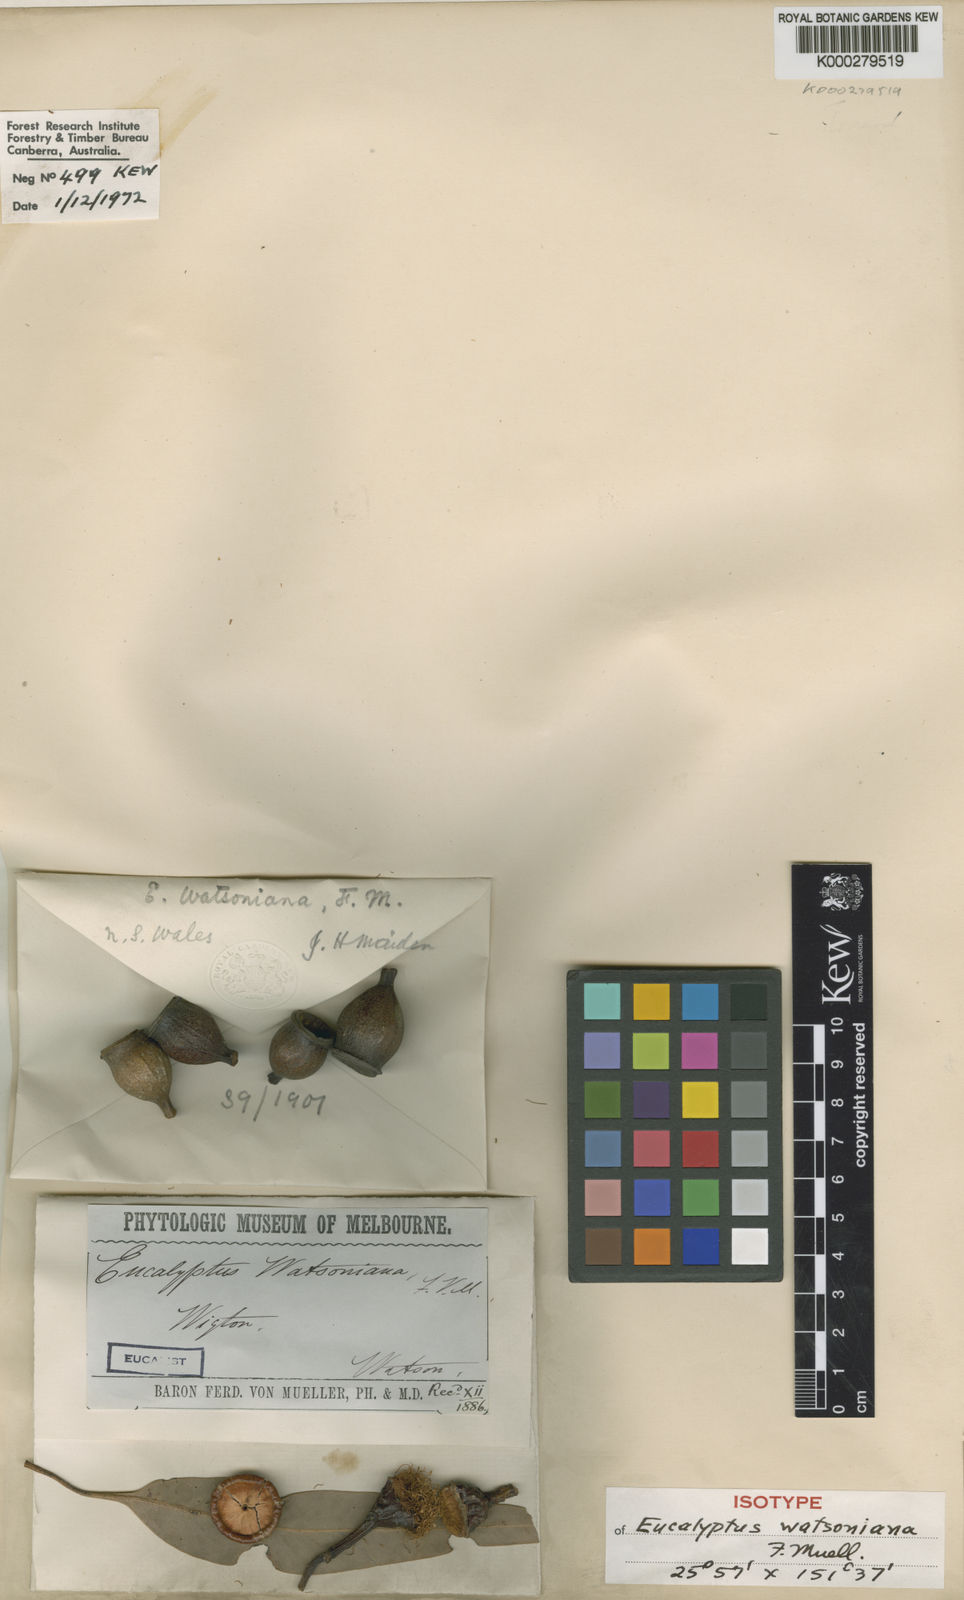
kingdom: Plantae
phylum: Tracheophyta
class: Magnoliopsida
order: Myrtales
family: Myrtaceae
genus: Corymbia
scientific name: Corymbia watsoniana
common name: Large-fruited yellowjacket
